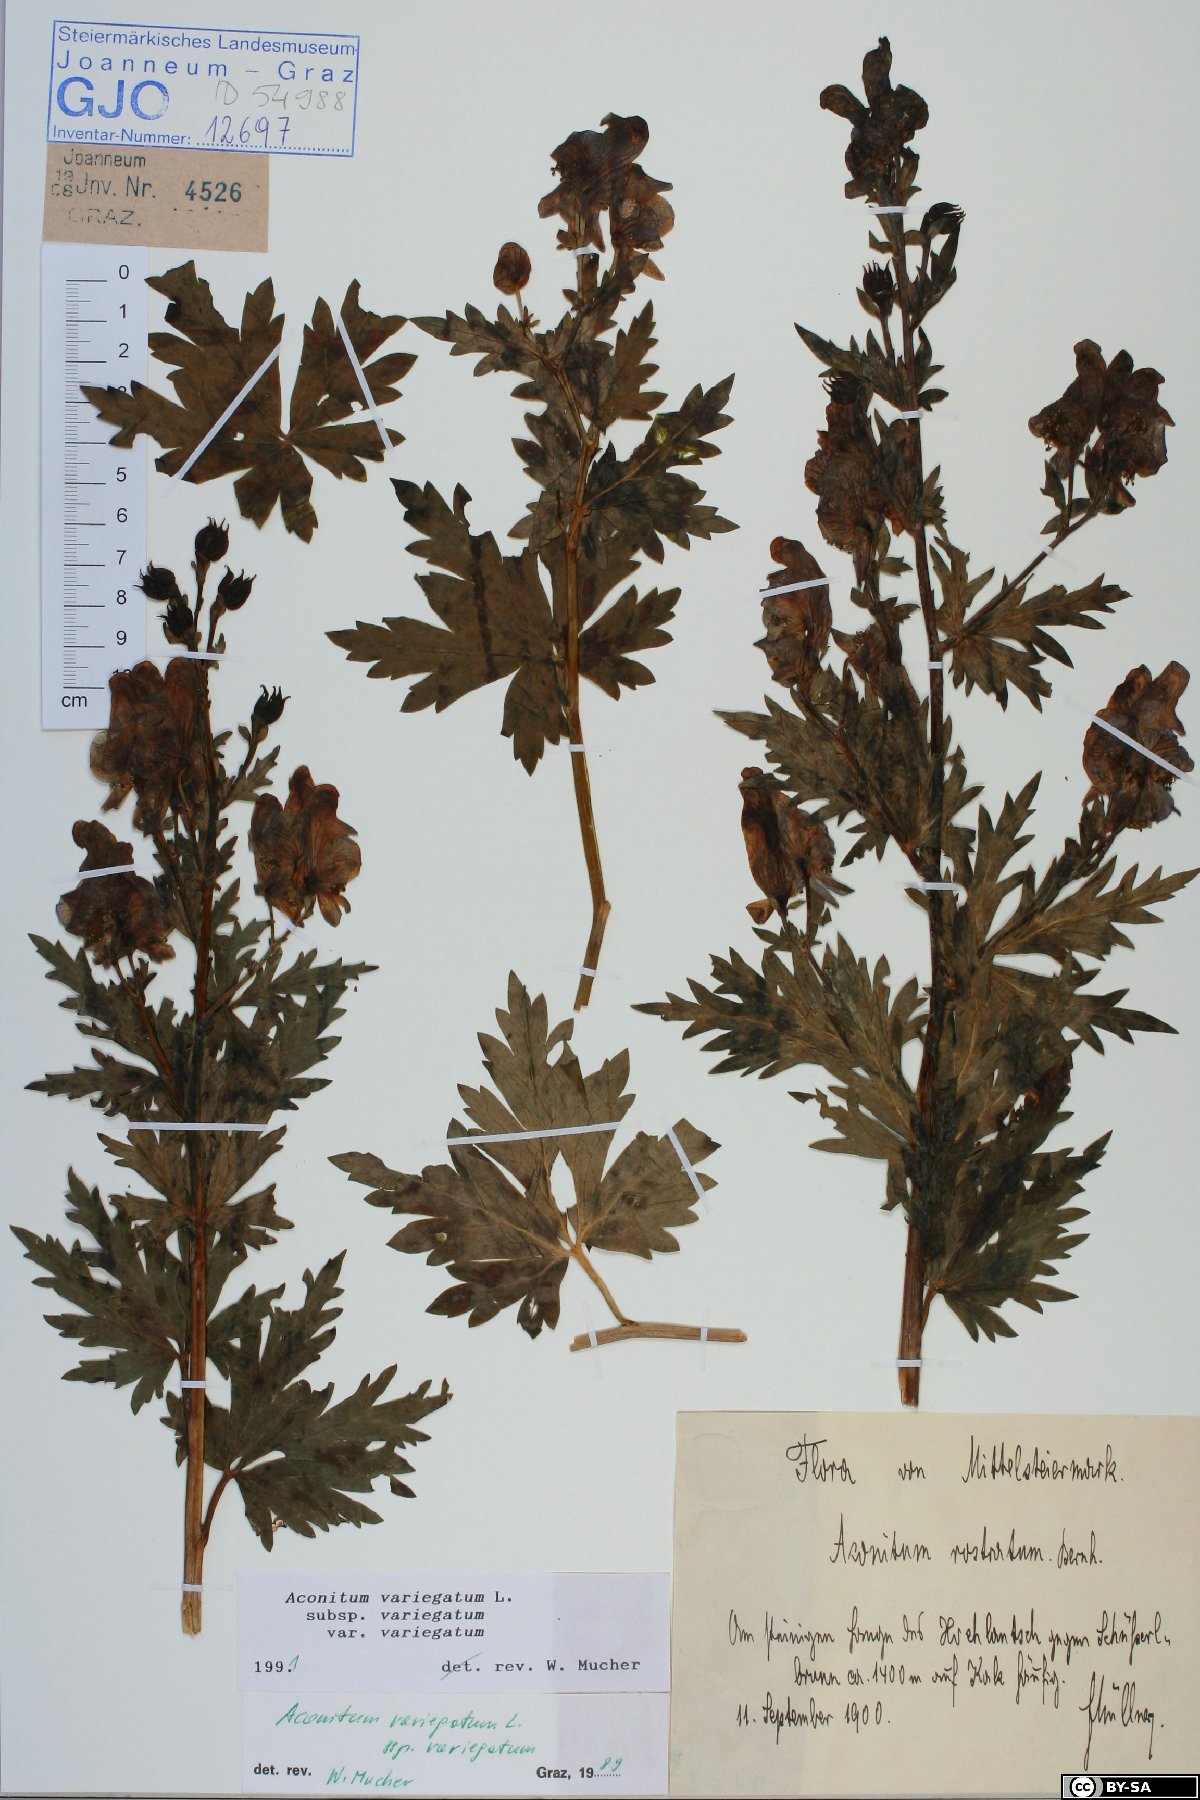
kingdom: Plantae
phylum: Tracheophyta
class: Magnoliopsida
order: Ranunculales
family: Ranunculaceae
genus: Aconitum
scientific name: Aconitum variegatum
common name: Manchurian monkshood
